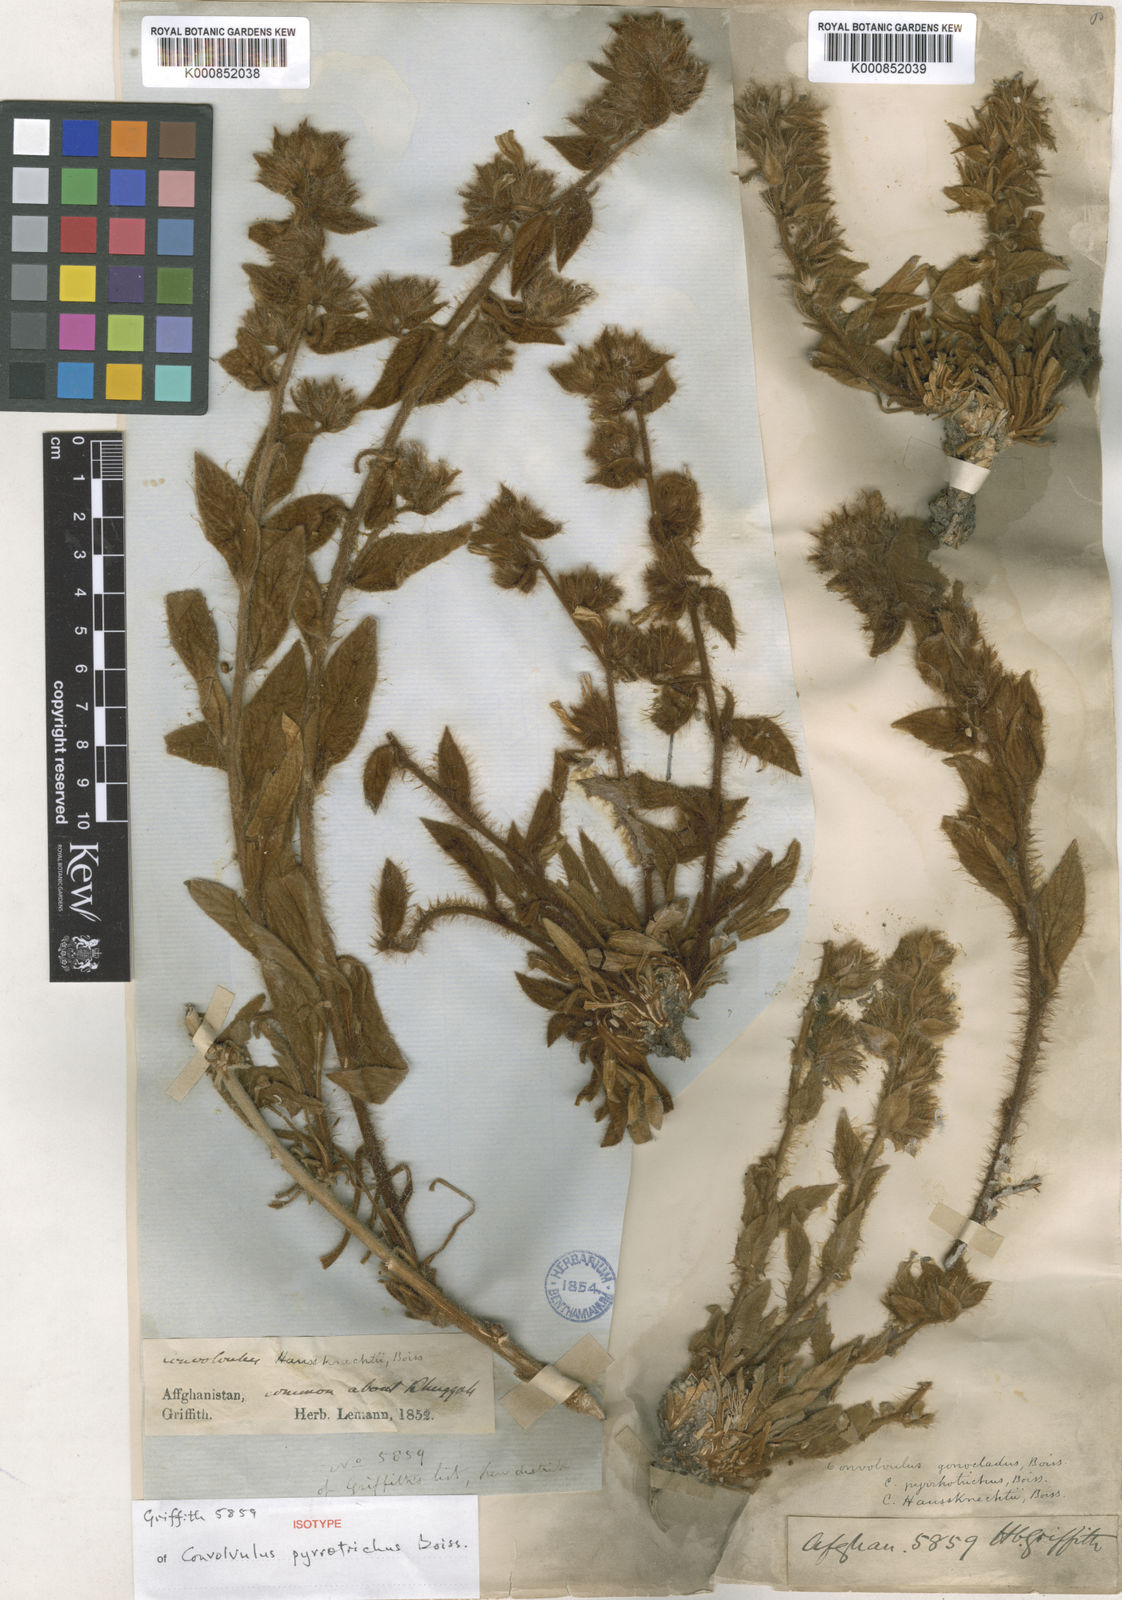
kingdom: Plantae
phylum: Tracheophyta
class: Magnoliopsida
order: Solanales
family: Convolvulaceae
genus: Convolvulus
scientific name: Convolvulus pyrrhotrichus
